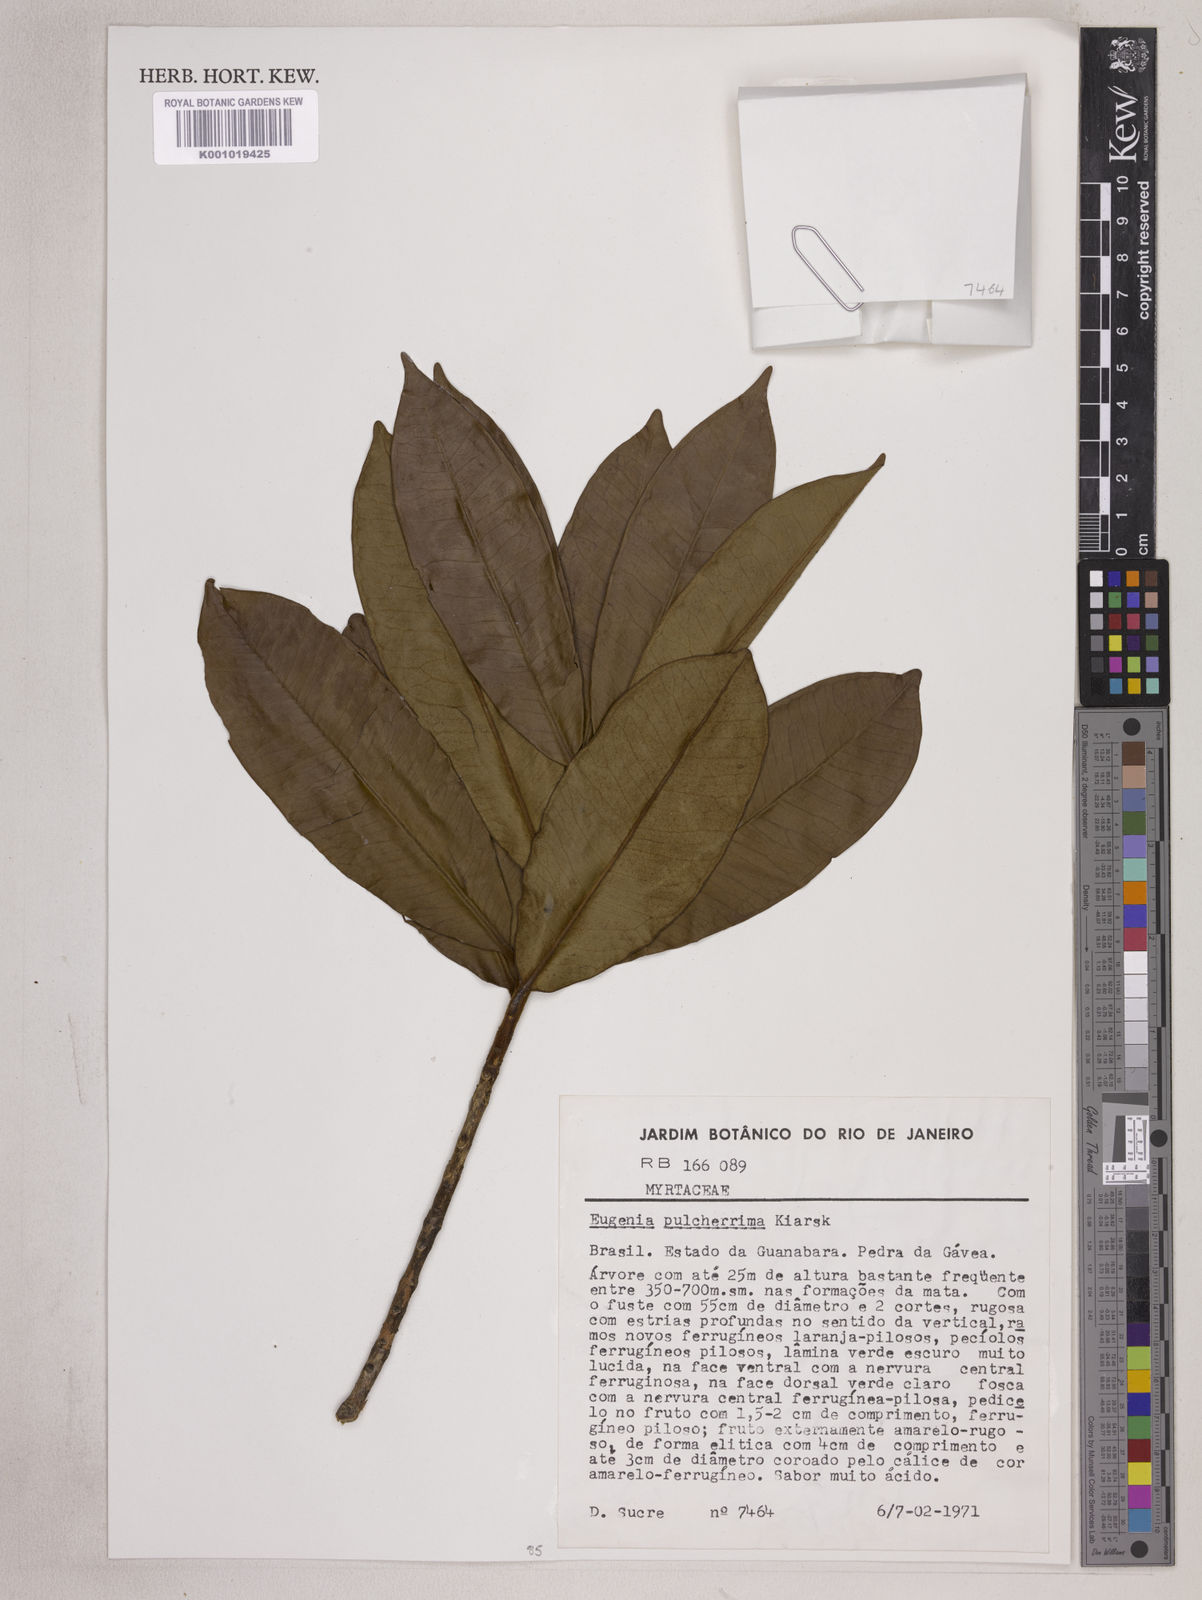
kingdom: Plantae
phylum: Tracheophyta
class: Magnoliopsida
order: Myrtales
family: Myrtaceae
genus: Eugenia
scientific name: Eugenia pulcherrima
